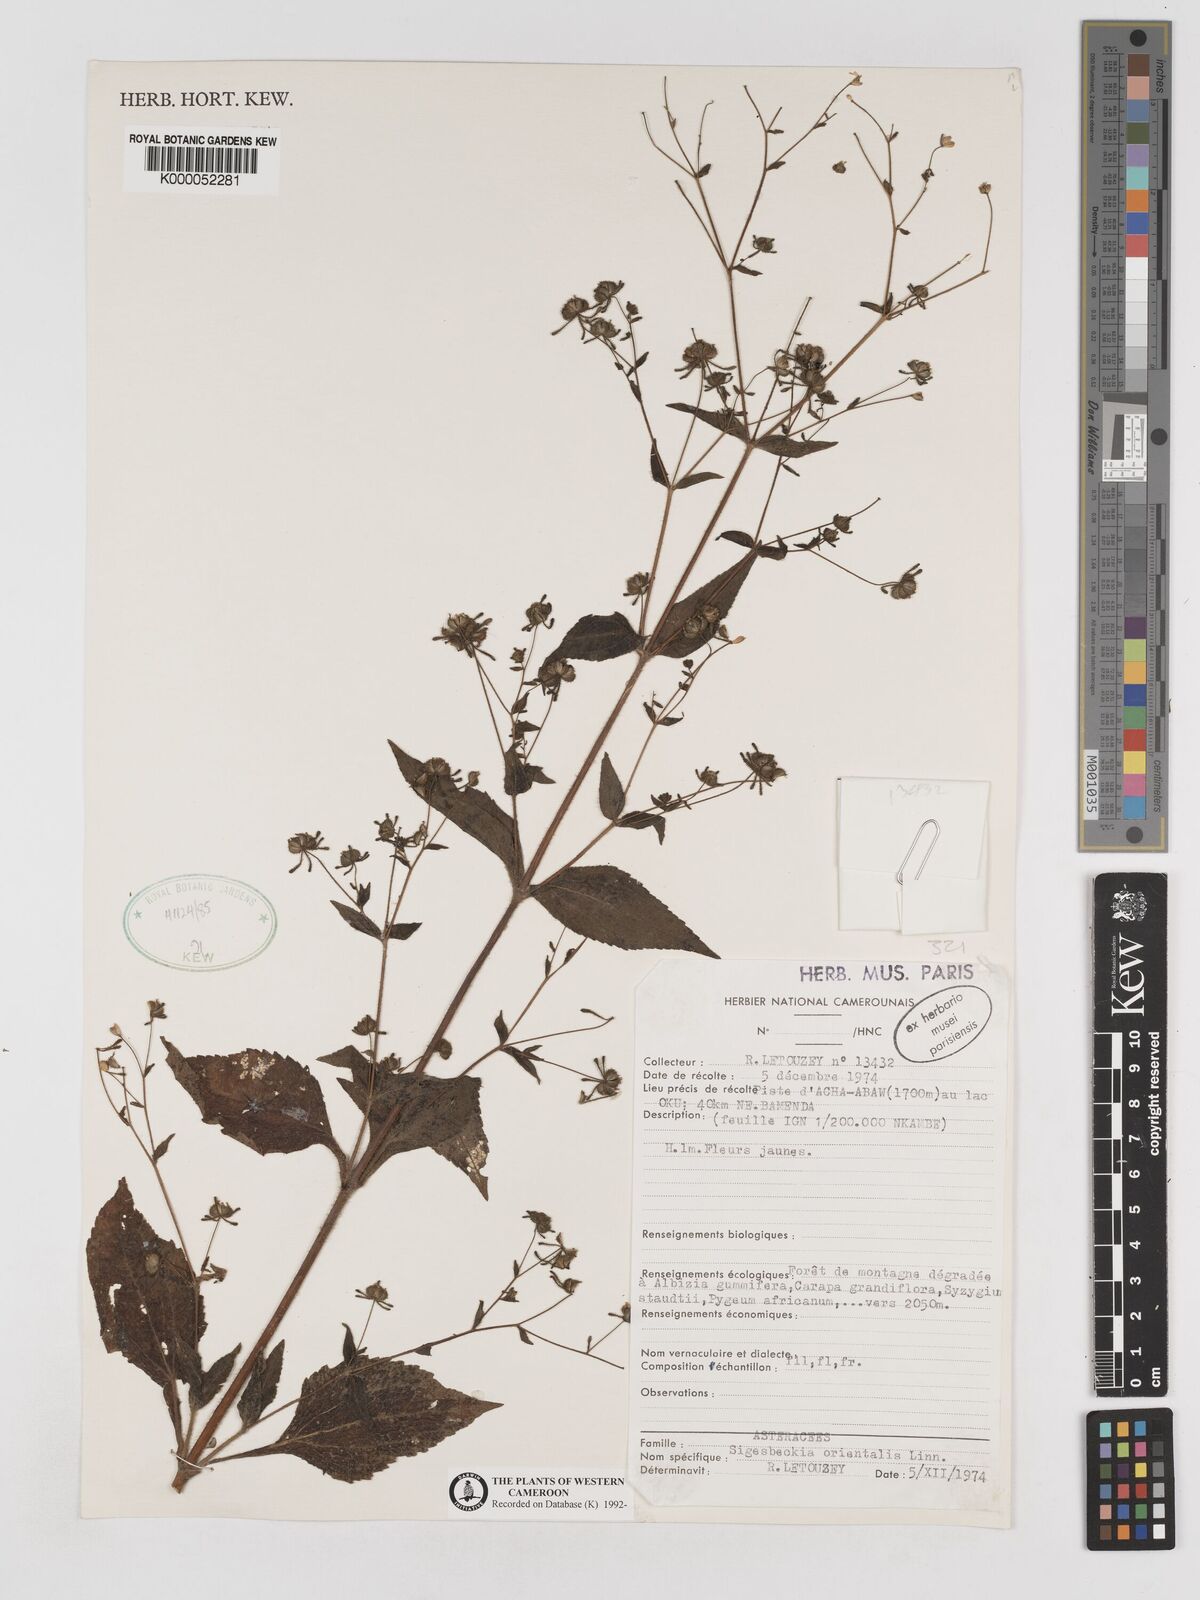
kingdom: Plantae
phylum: Tracheophyta
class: Magnoliopsida
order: Asterales
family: Asteraceae
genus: Sigesbeckia
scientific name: Sigesbeckia
